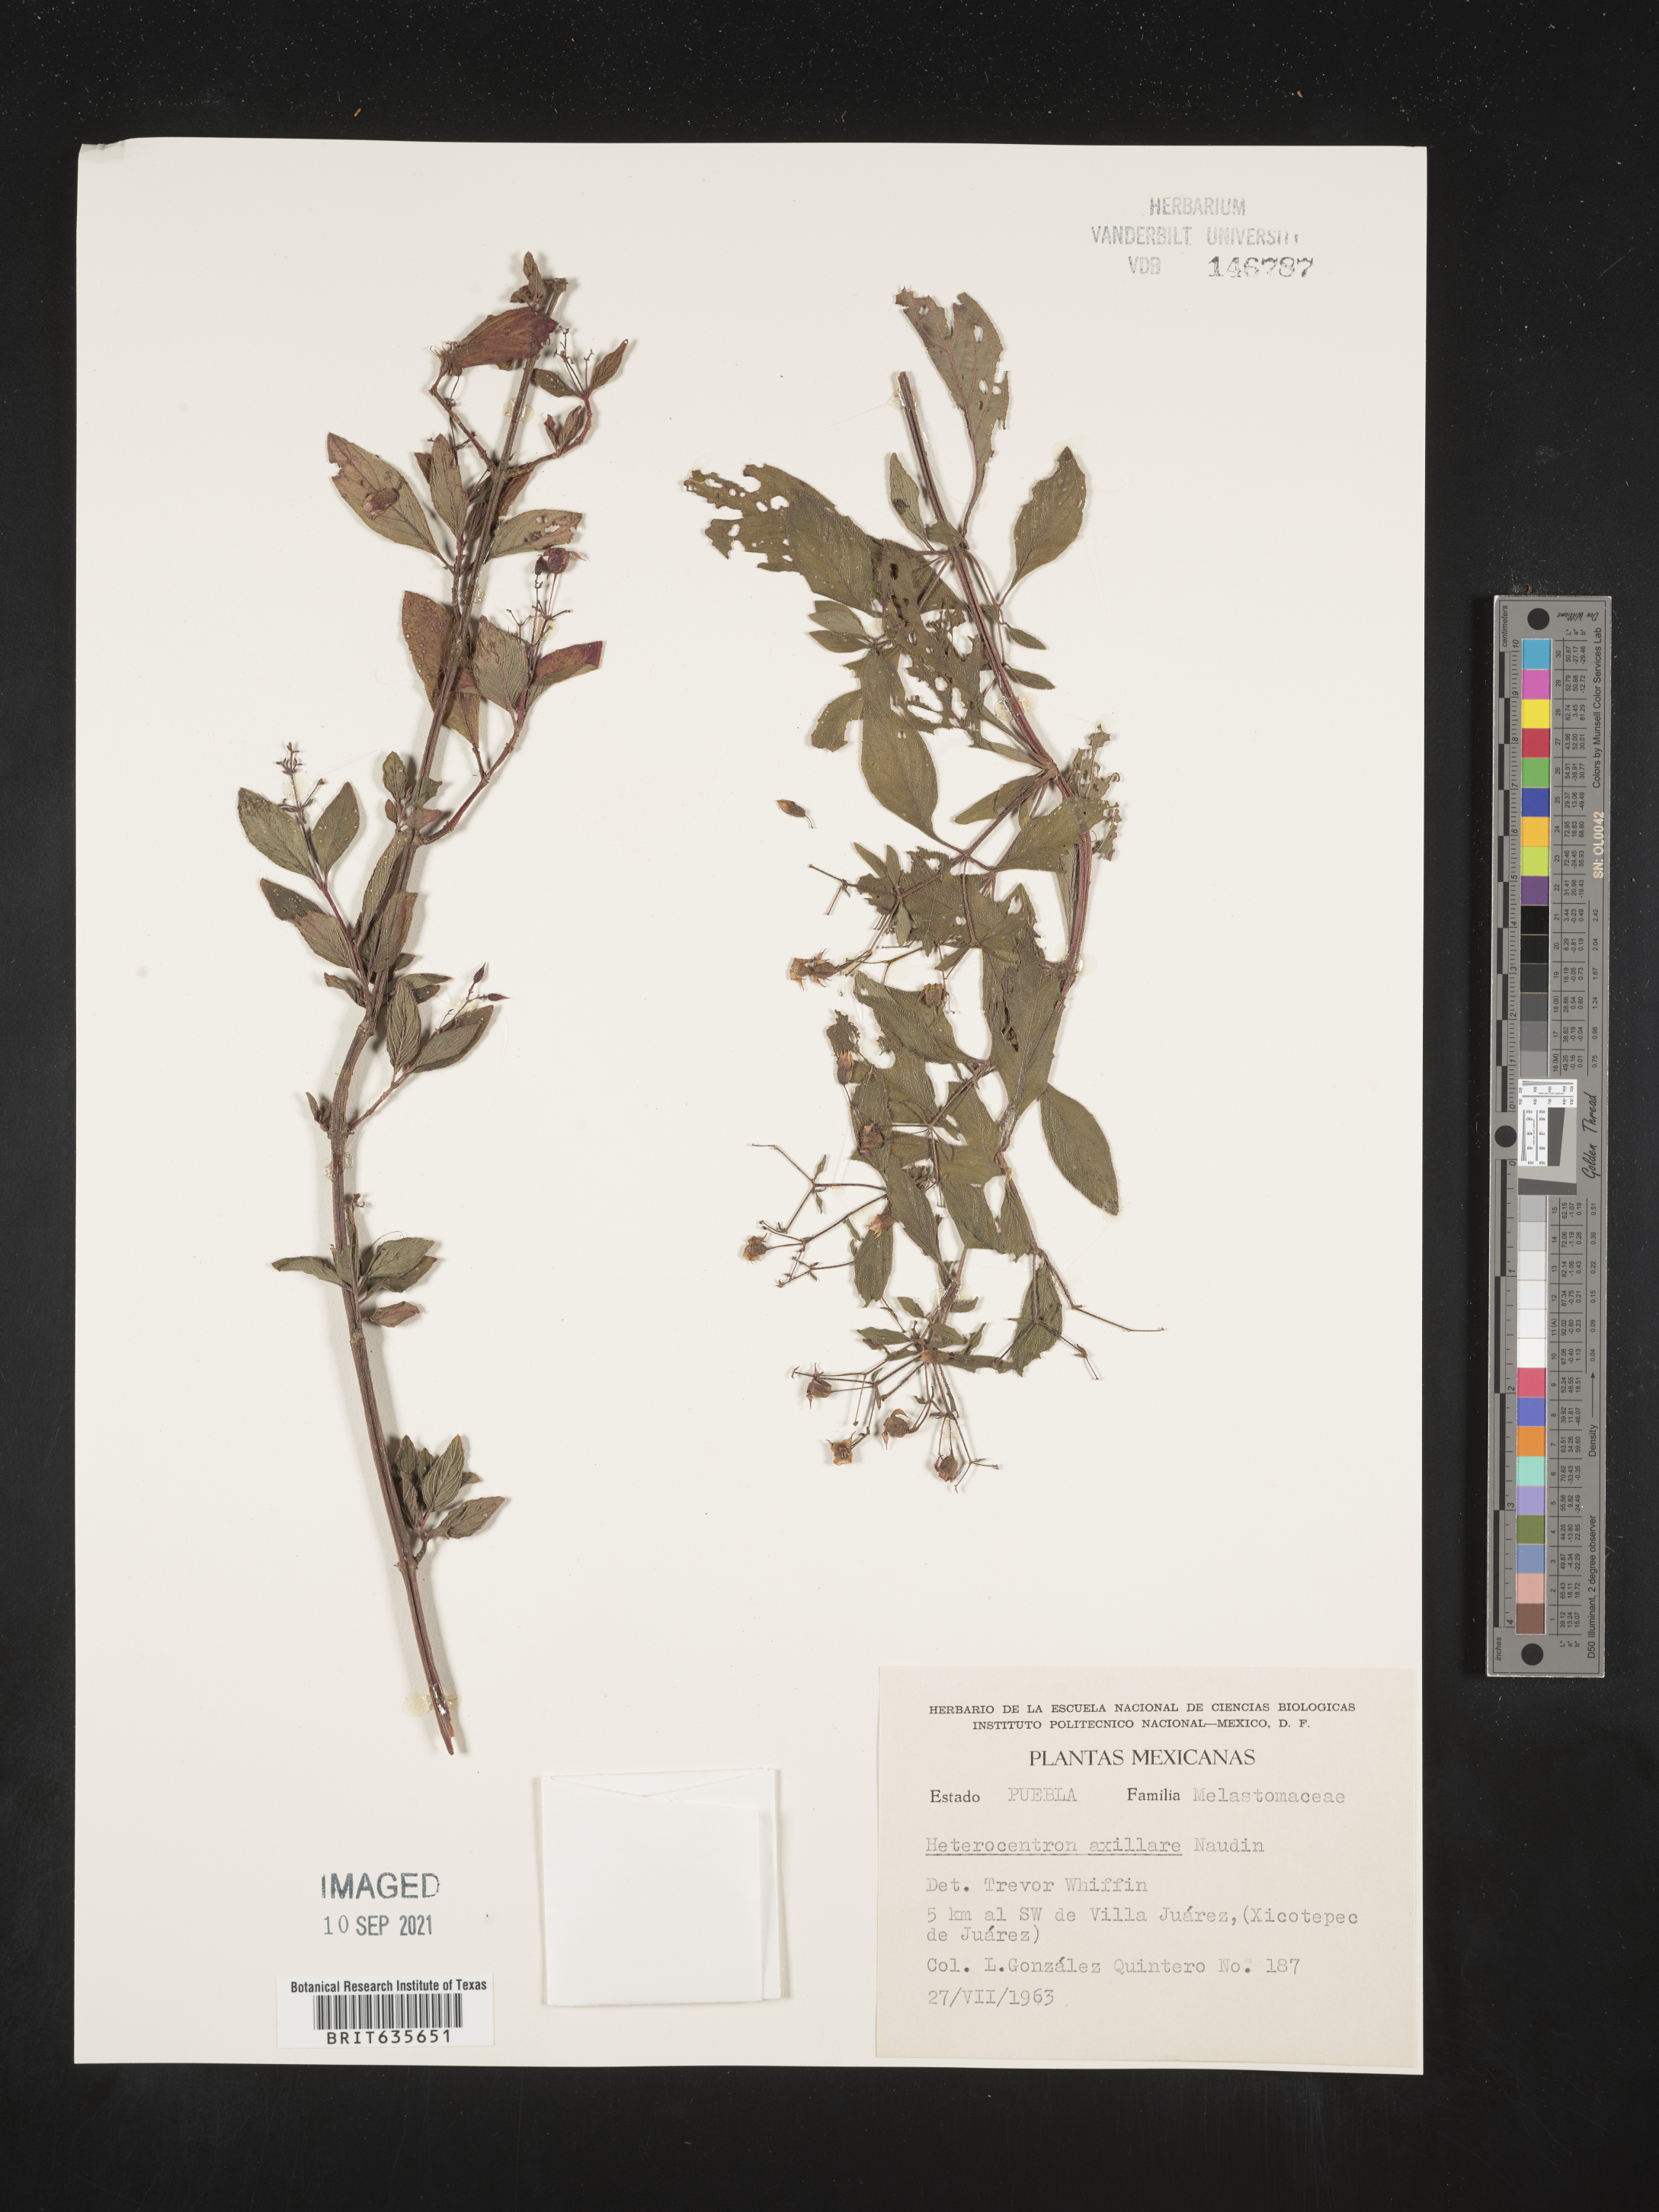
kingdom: Plantae
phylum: Tracheophyta
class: Magnoliopsida
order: Myrtales
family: Melastomataceae
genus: Heterocentron
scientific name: Heterocentron subtriplinervium
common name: Pearl flower
